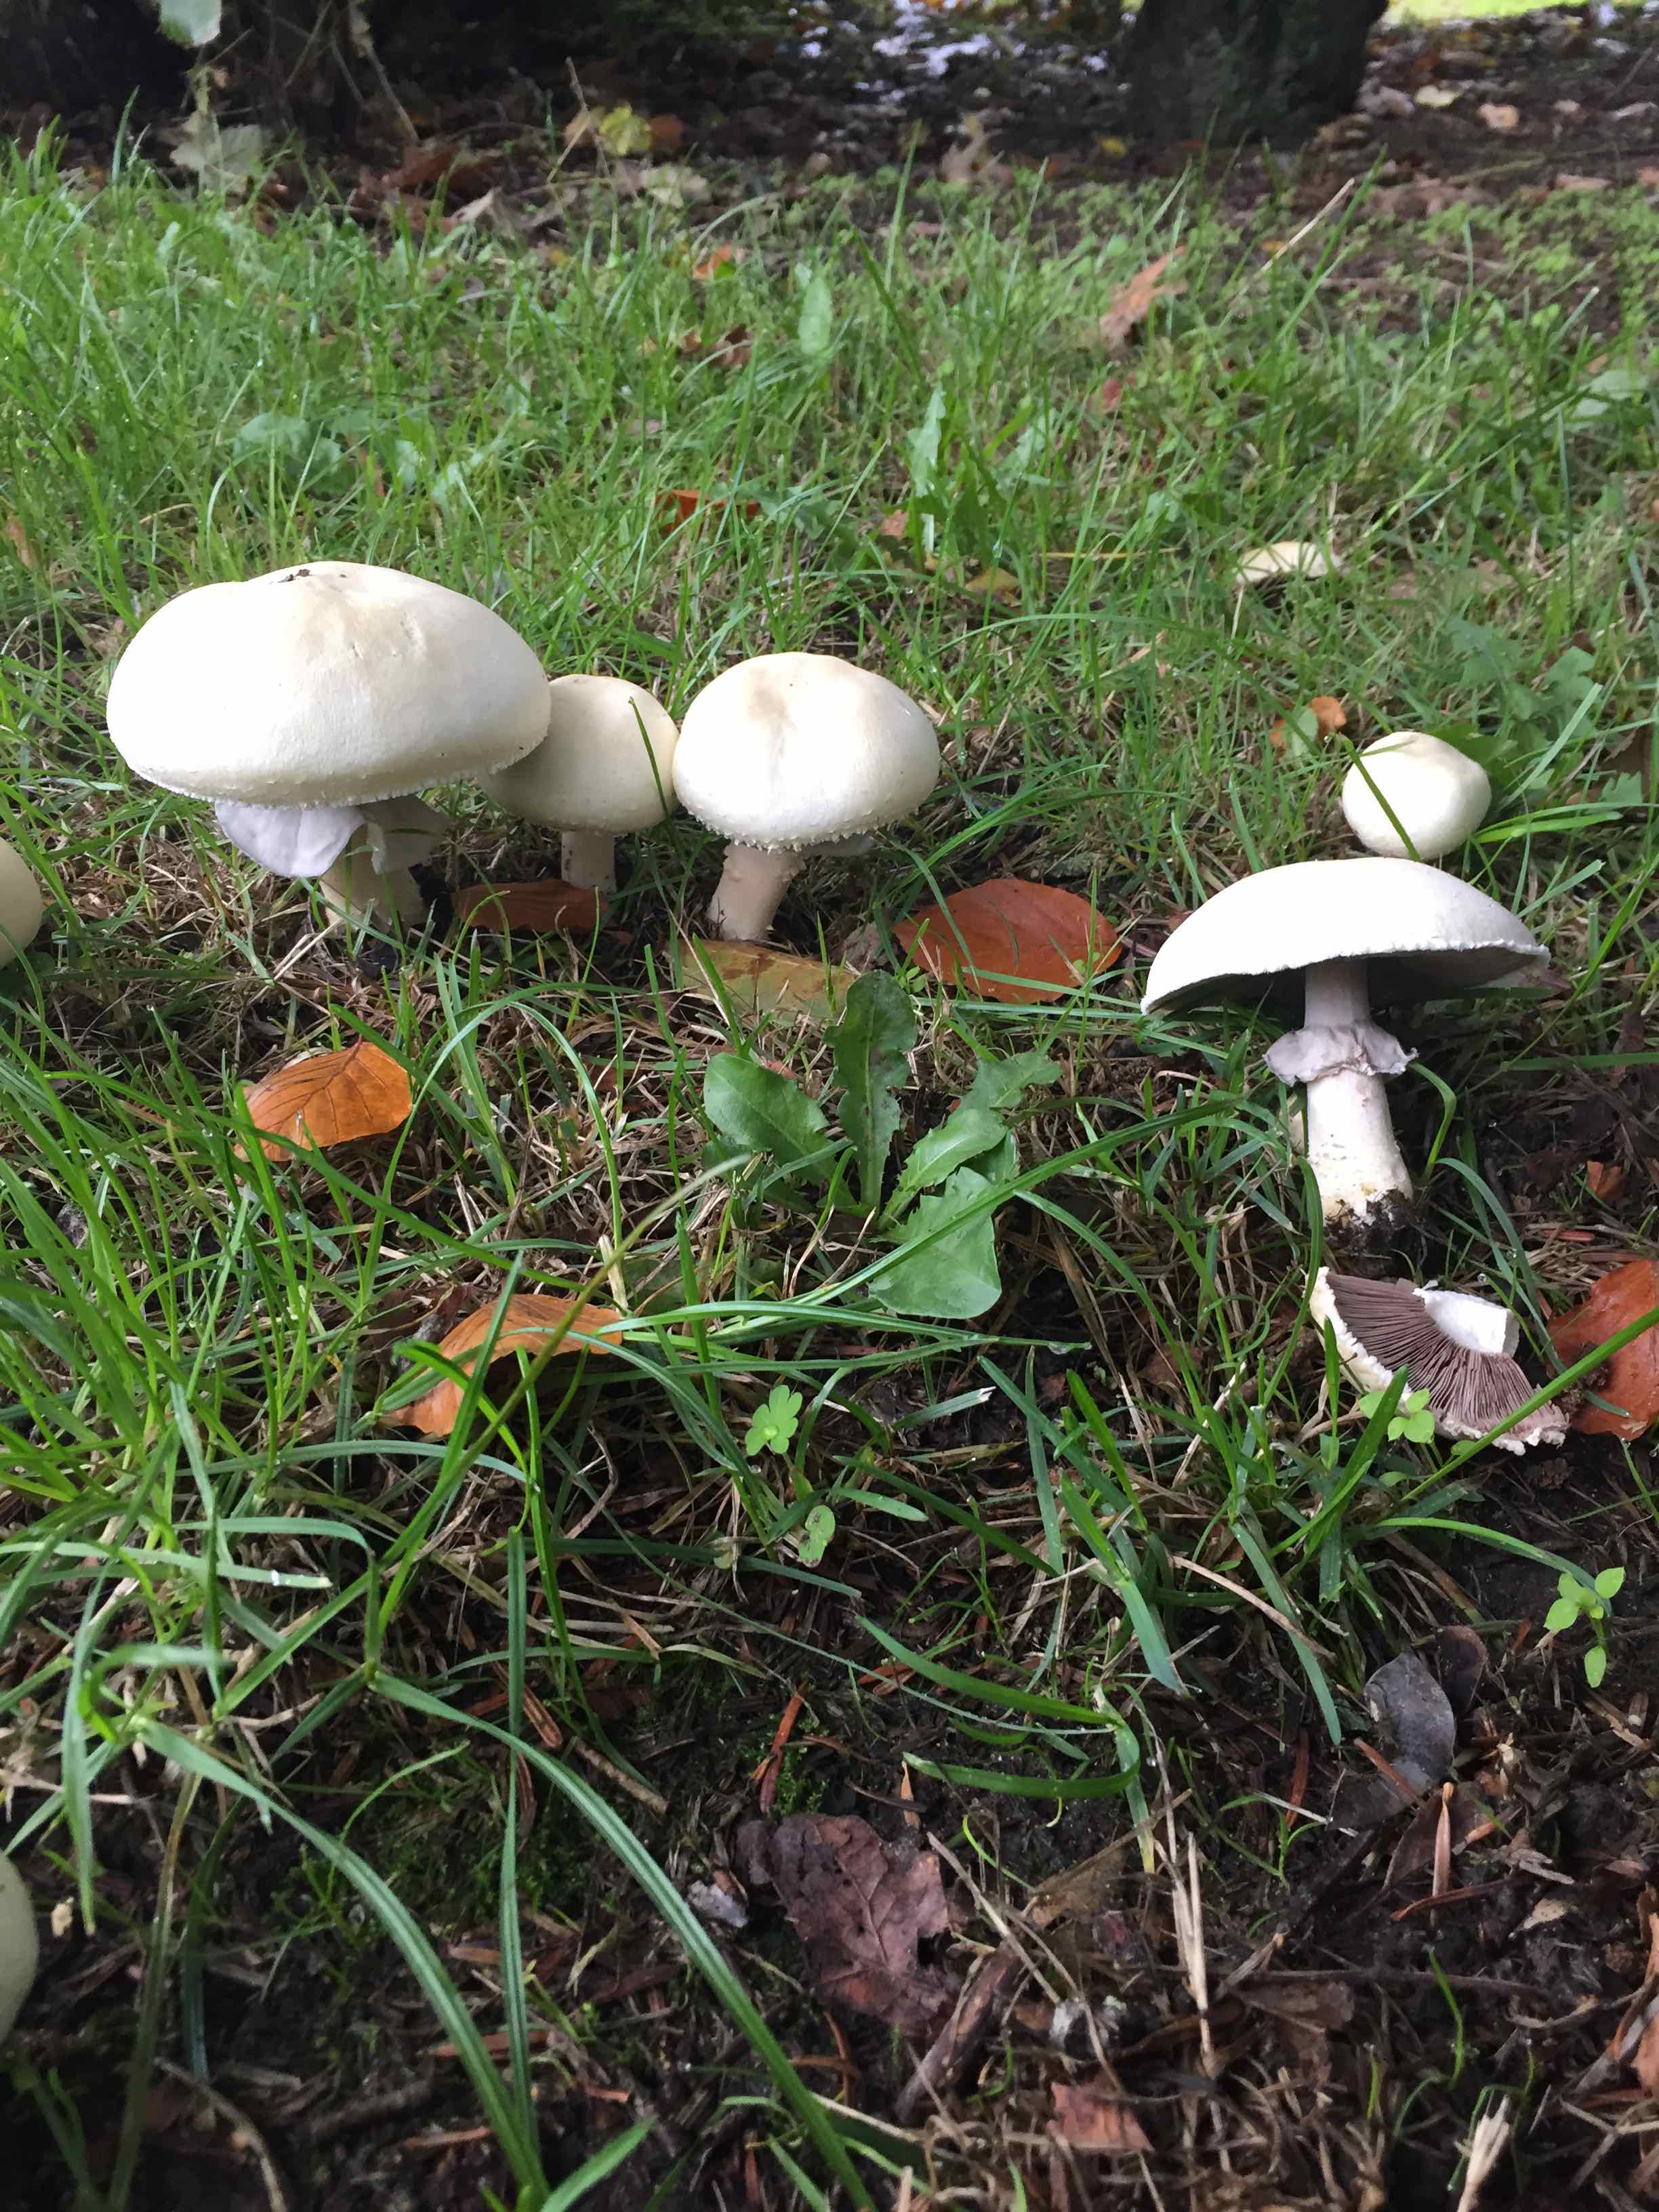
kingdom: Fungi
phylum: Basidiomycota
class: Agaricomycetes
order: Agaricales
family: Agaricaceae
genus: Agaricus
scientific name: Agaricus
